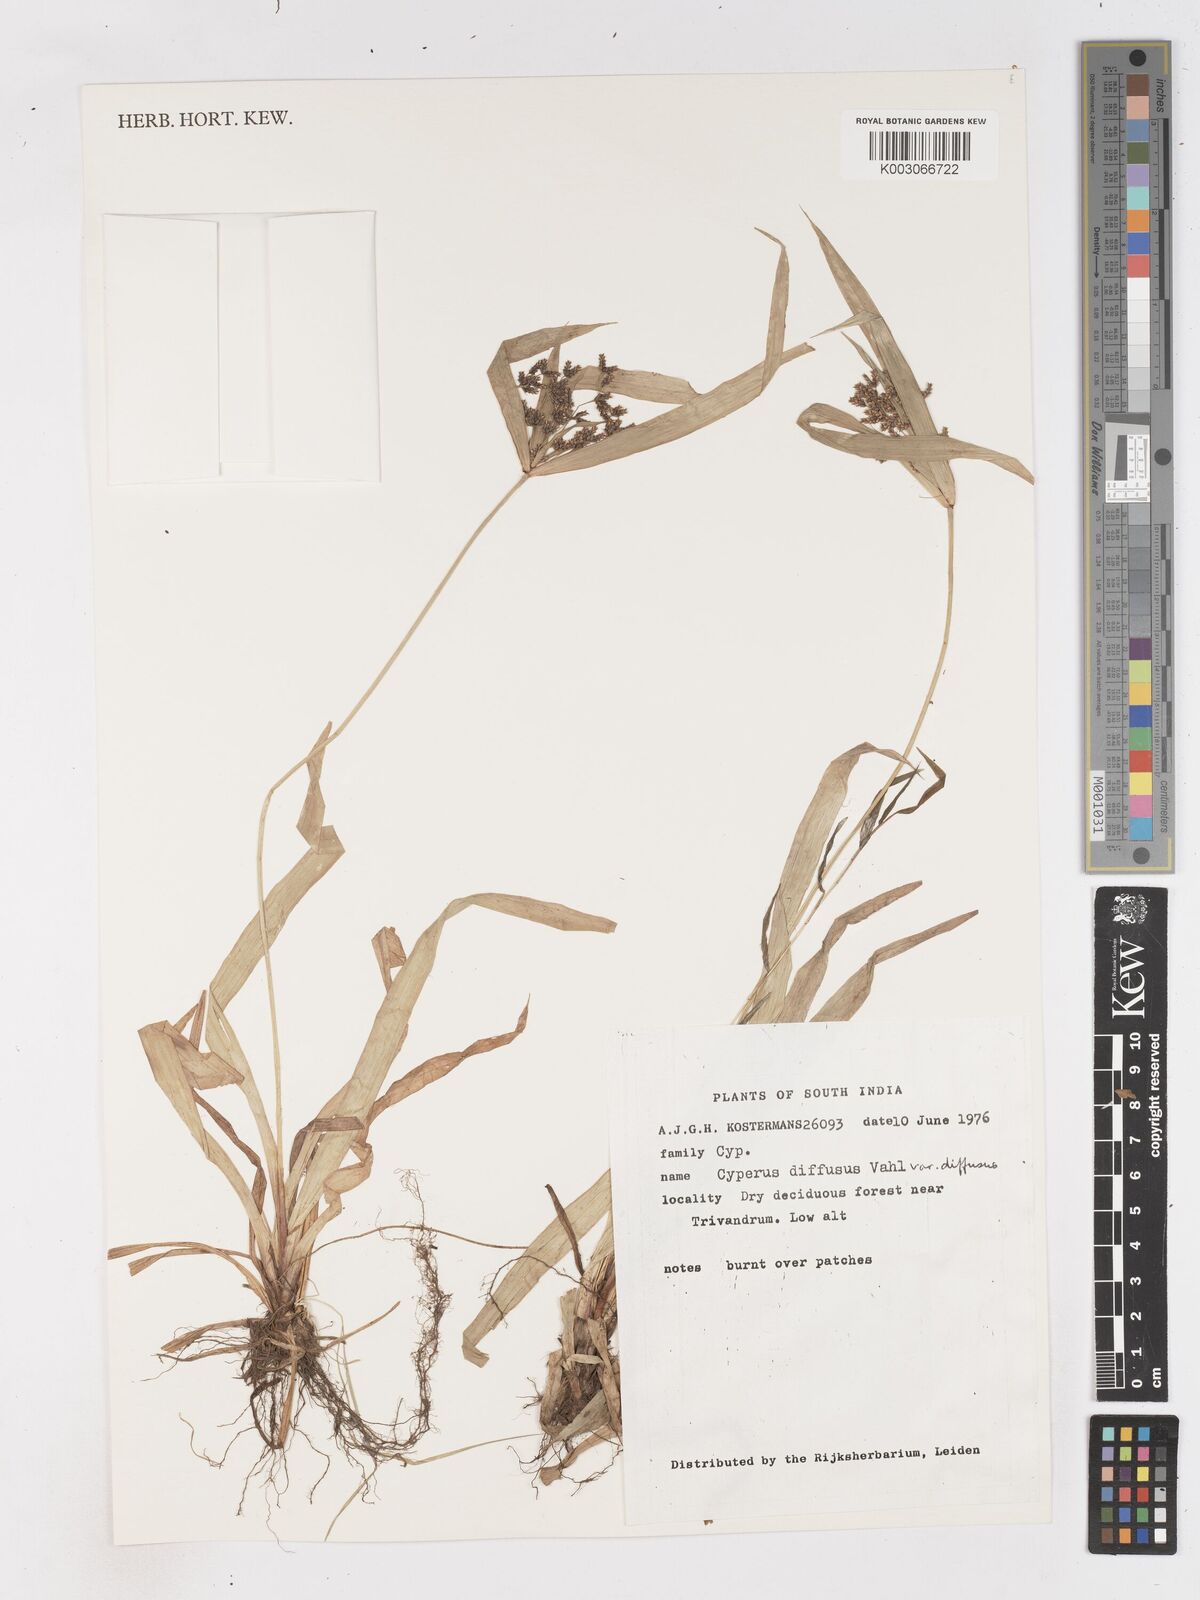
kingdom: Plantae
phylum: Tracheophyta
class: Liliopsida
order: Poales
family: Cyperaceae
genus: Cyperus
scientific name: Cyperus diffusus
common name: Dwarf umbrella grass
